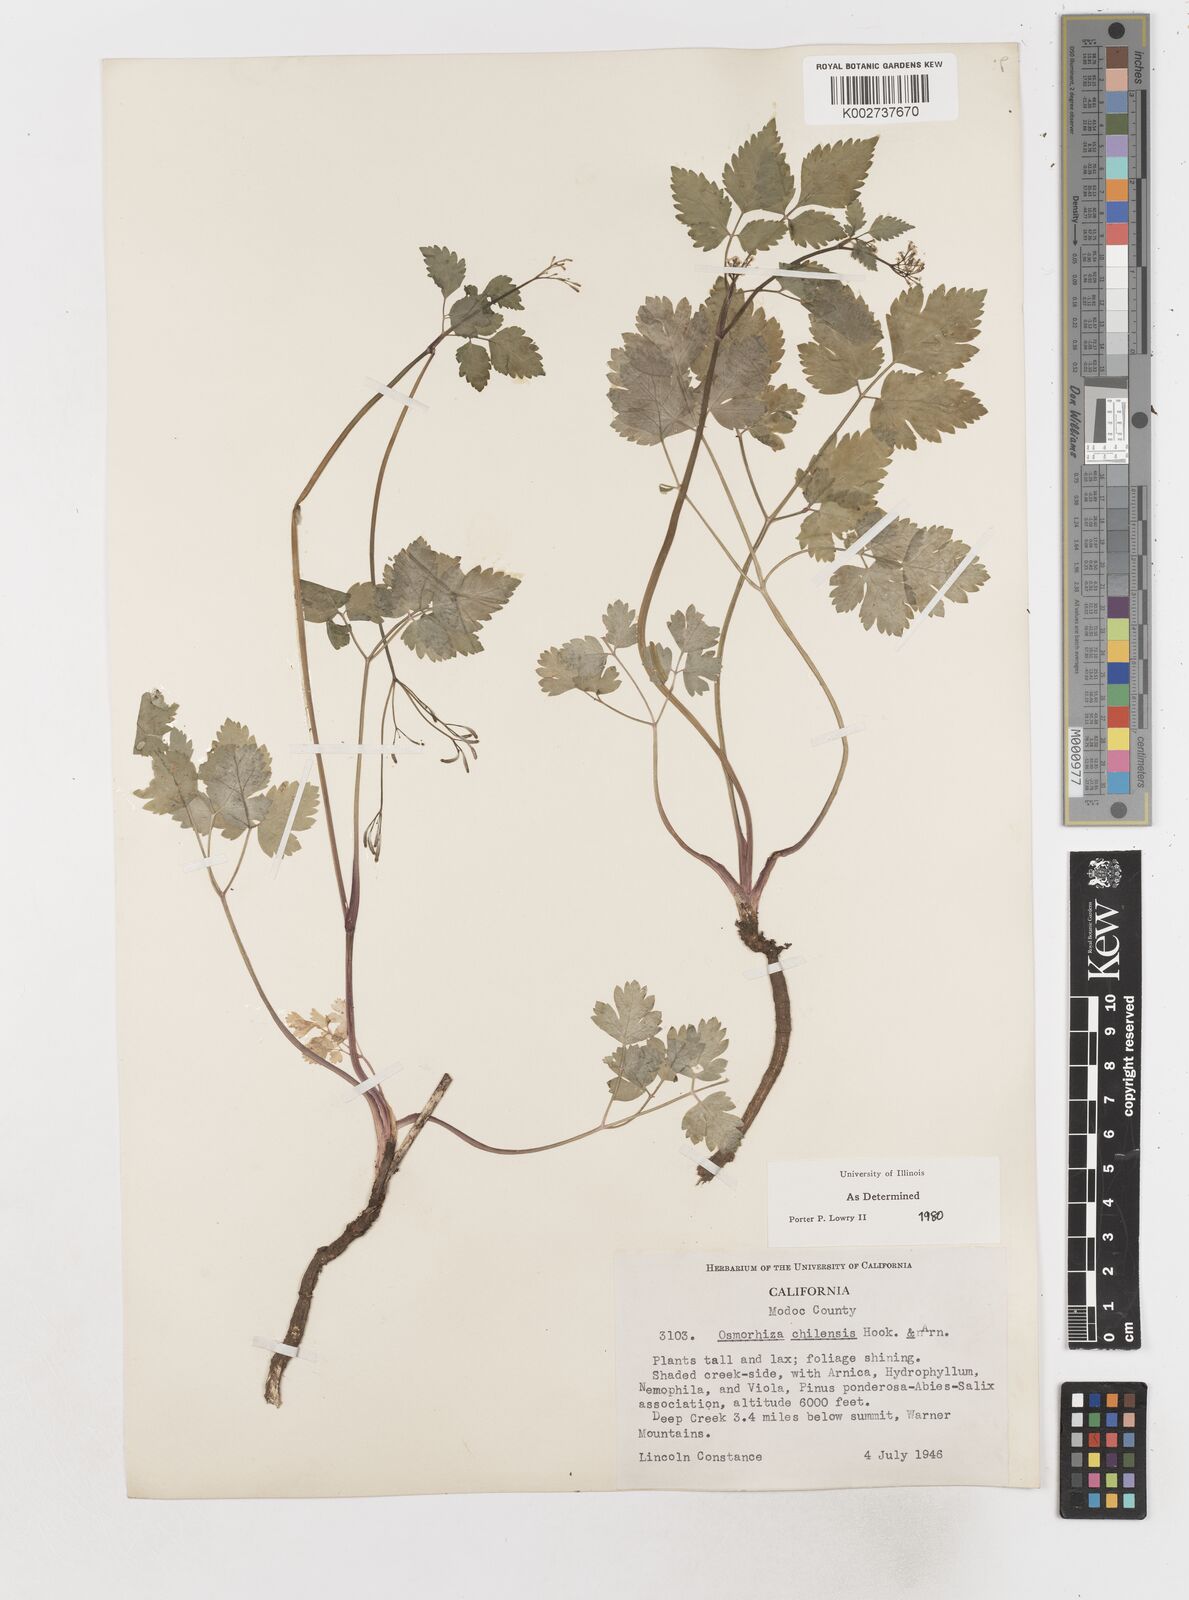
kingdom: Plantae
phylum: Tracheophyta
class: Magnoliopsida
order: Apiales
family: Apiaceae
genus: Osmorhiza
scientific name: Osmorhiza berteroi
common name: Mountain sweet cicely
